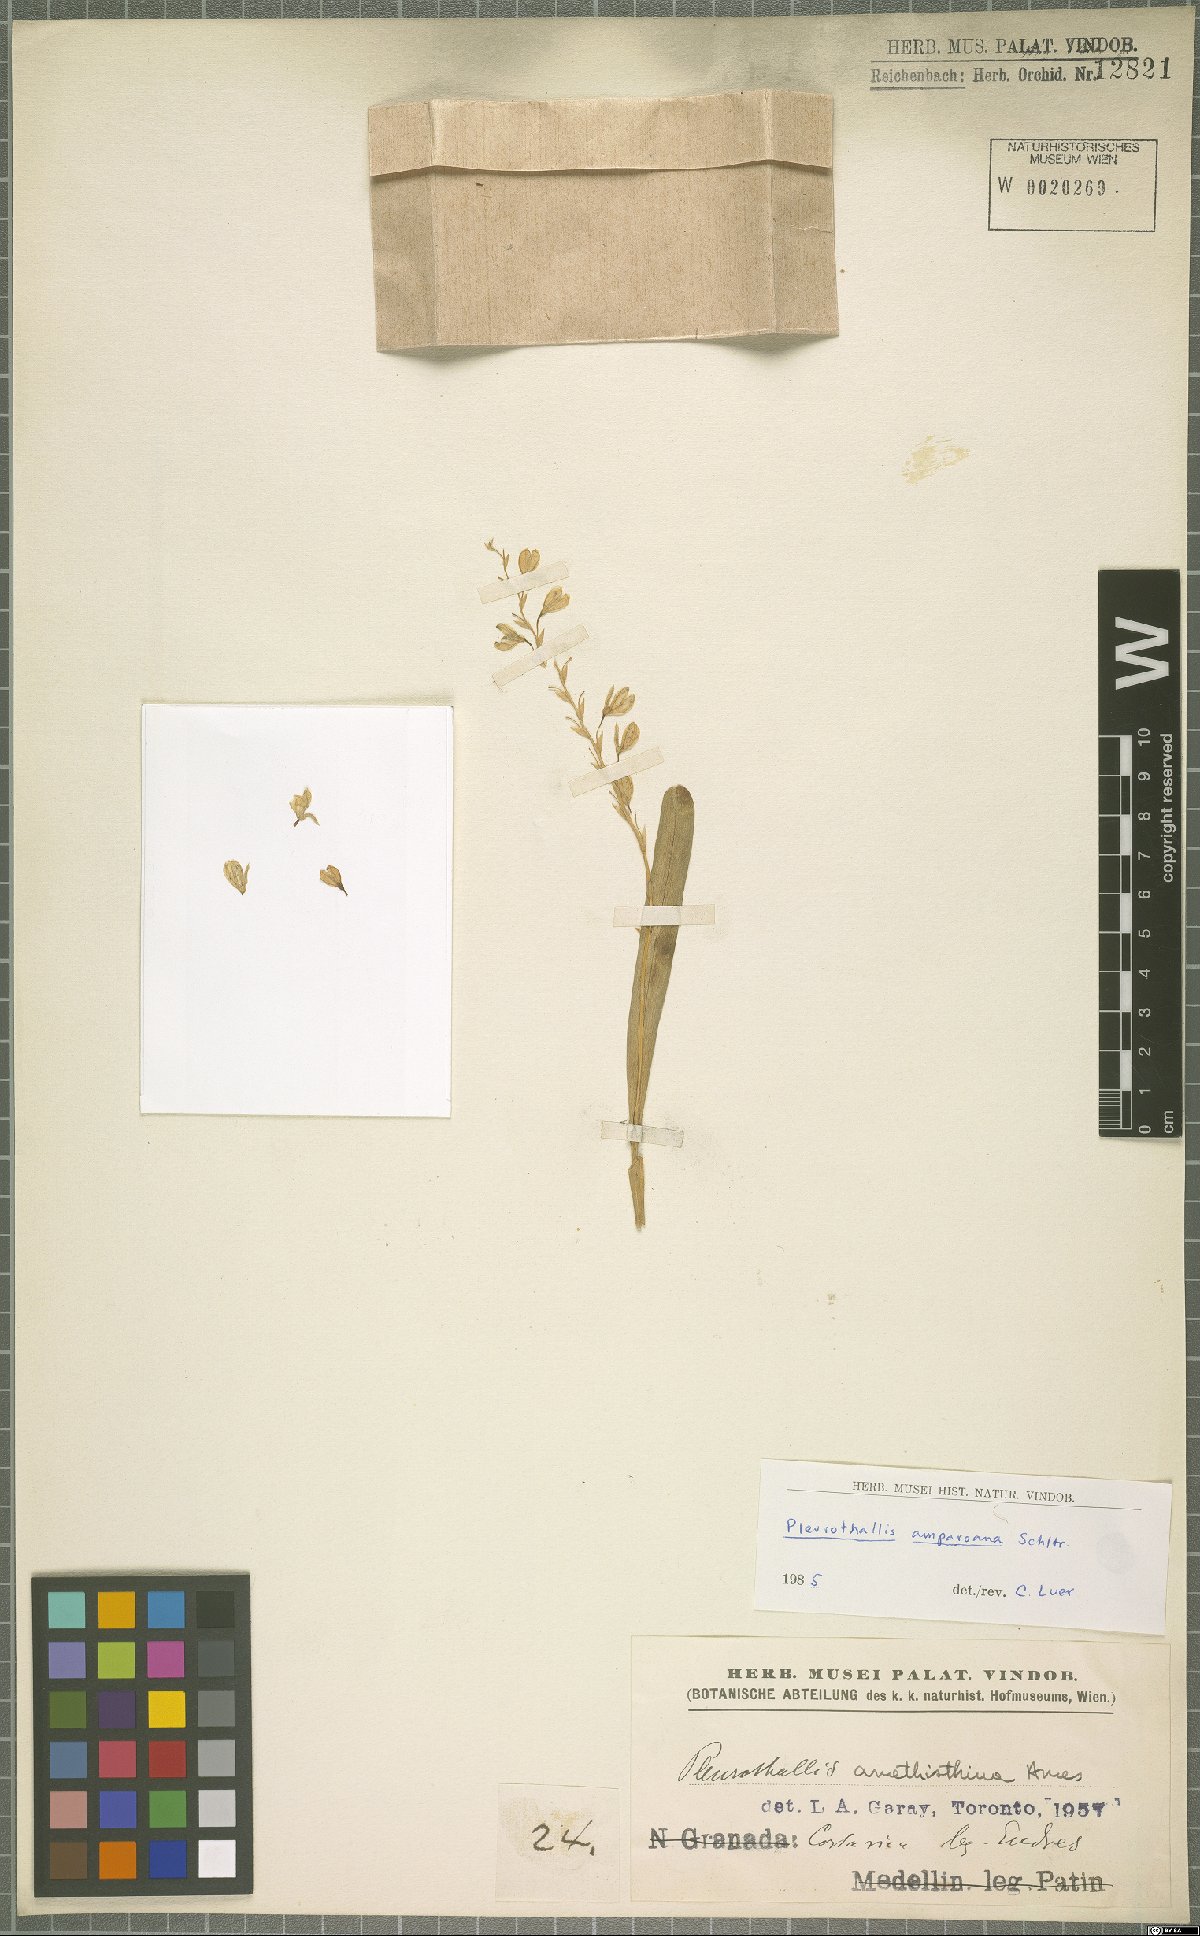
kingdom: Plantae
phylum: Tracheophyta
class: Liliopsida
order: Asparagales
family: Orchidaceae
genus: Stelis
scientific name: Stelis pilosa
